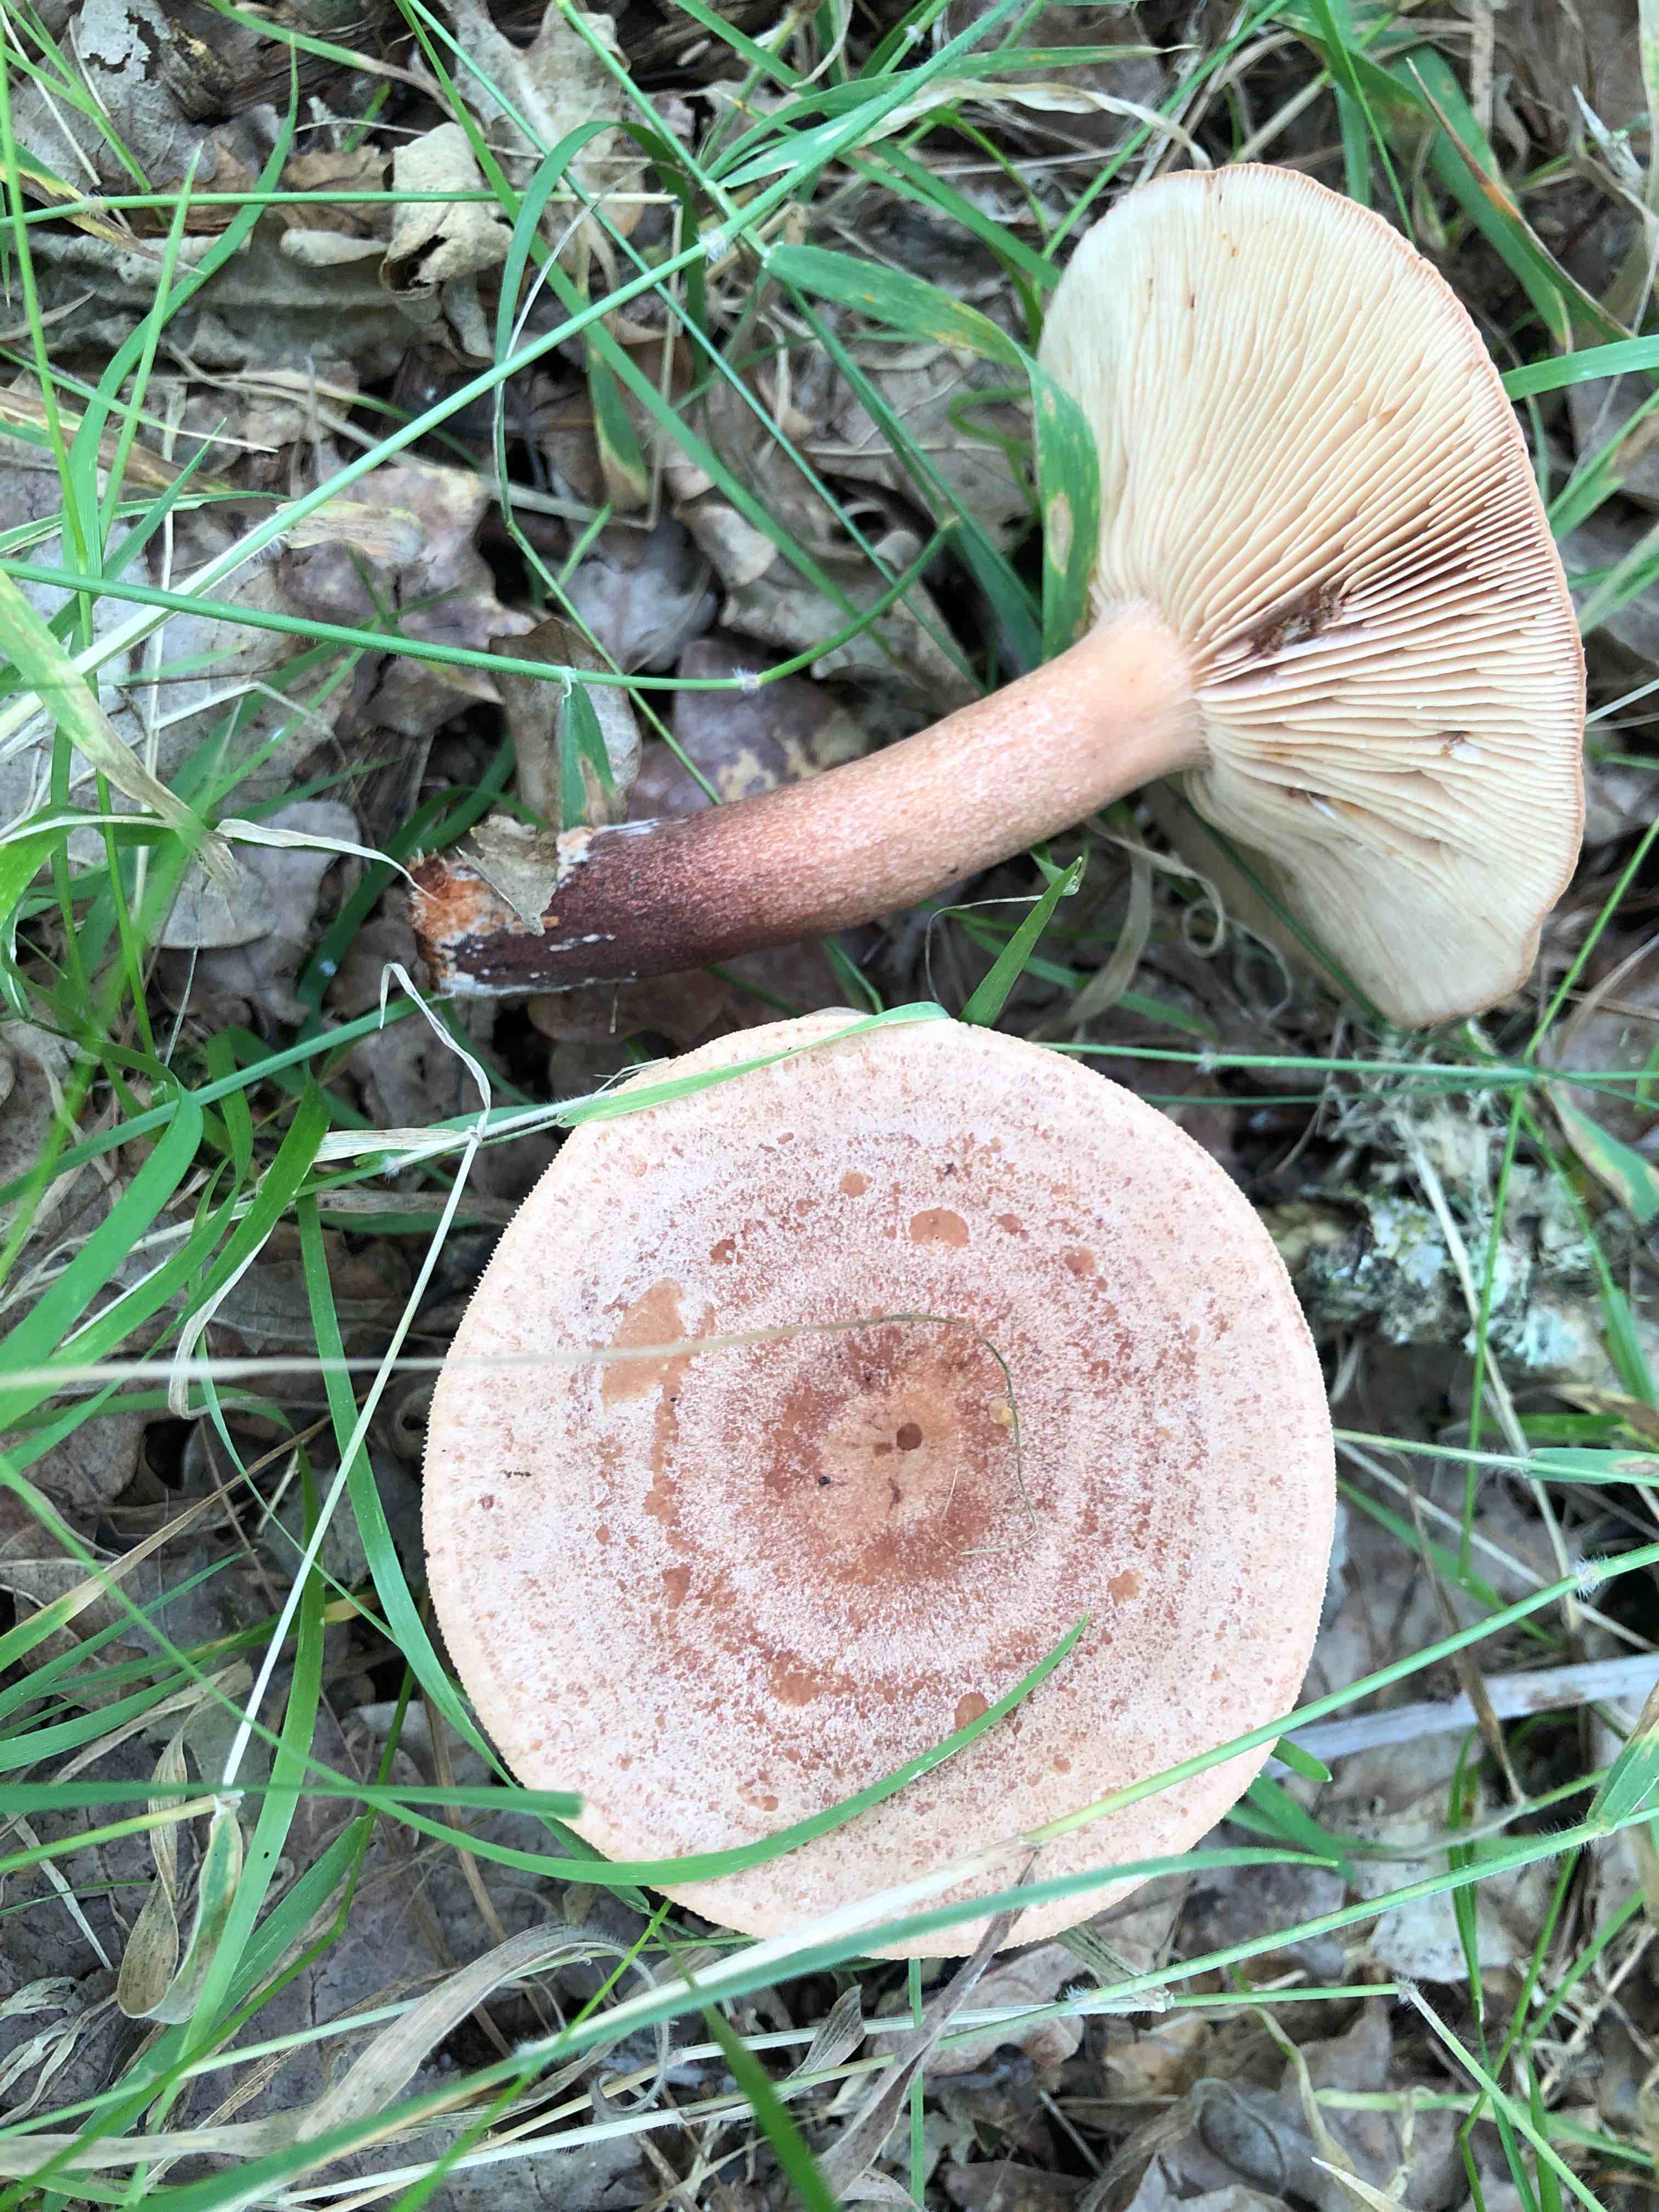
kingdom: Fungi
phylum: Basidiomycota
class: Agaricomycetes
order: Russulales
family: Russulaceae
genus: Lactarius
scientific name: Lactarius quietus
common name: ege-mælkehat
